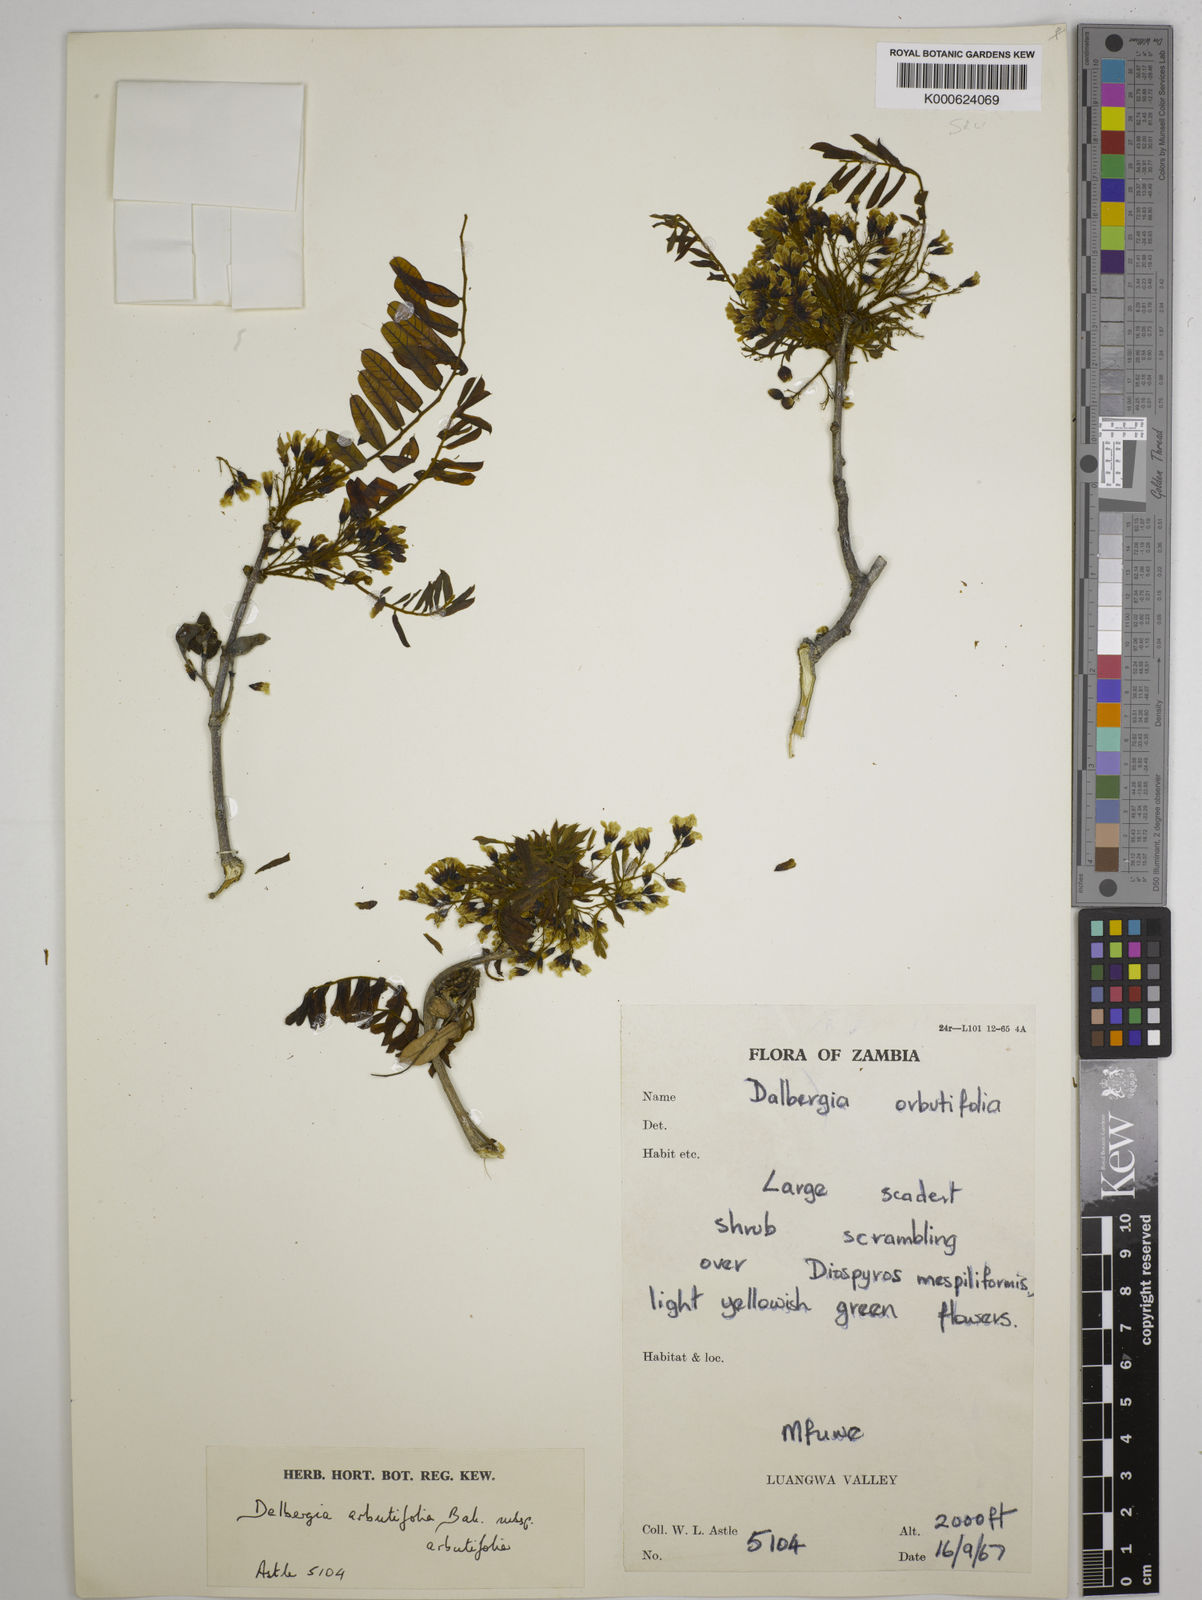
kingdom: Plantae
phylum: Tracheophyta
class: Magnoliopsida
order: Fabales
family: Fabaceae
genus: Dalbergia
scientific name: Dalbergia
